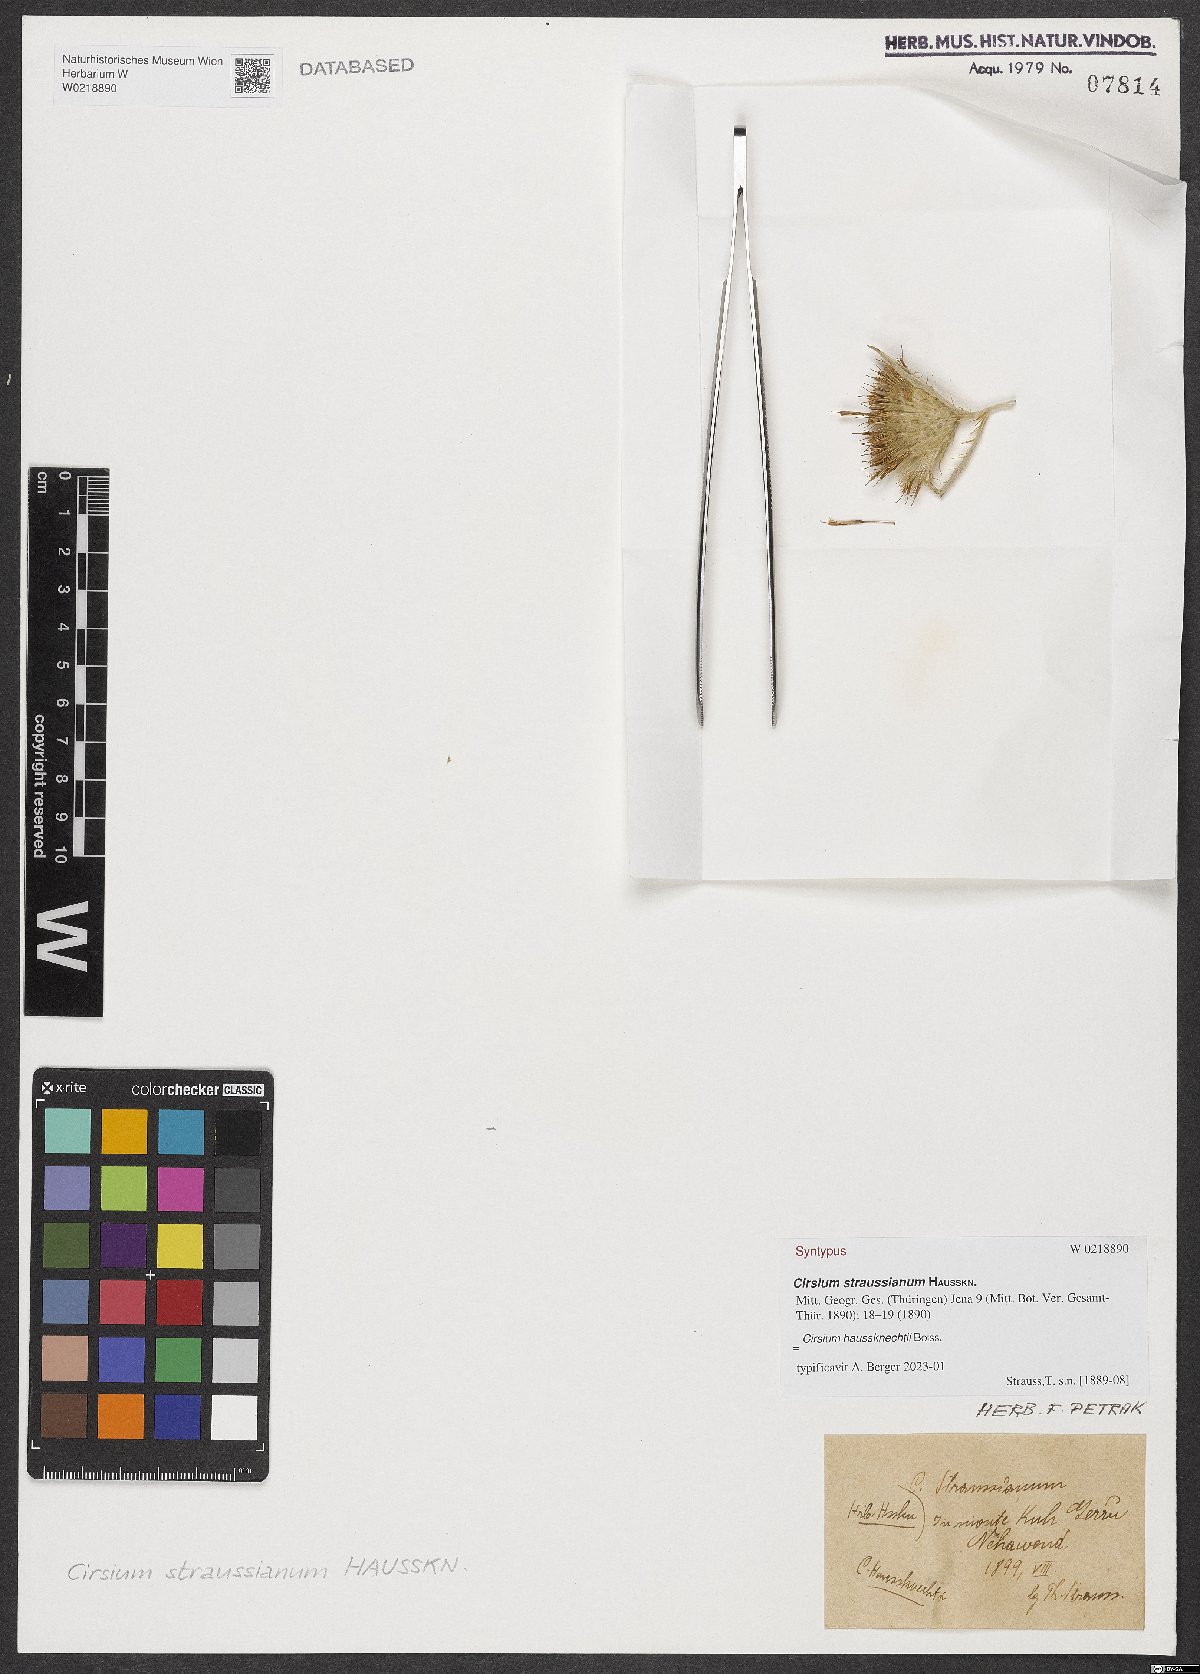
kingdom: Plantae
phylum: Tracheophyta
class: Magnoliopsida
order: Asterales
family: Asteraceae
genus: Lophiolepis
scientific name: Lophiolepis haussknechtii
